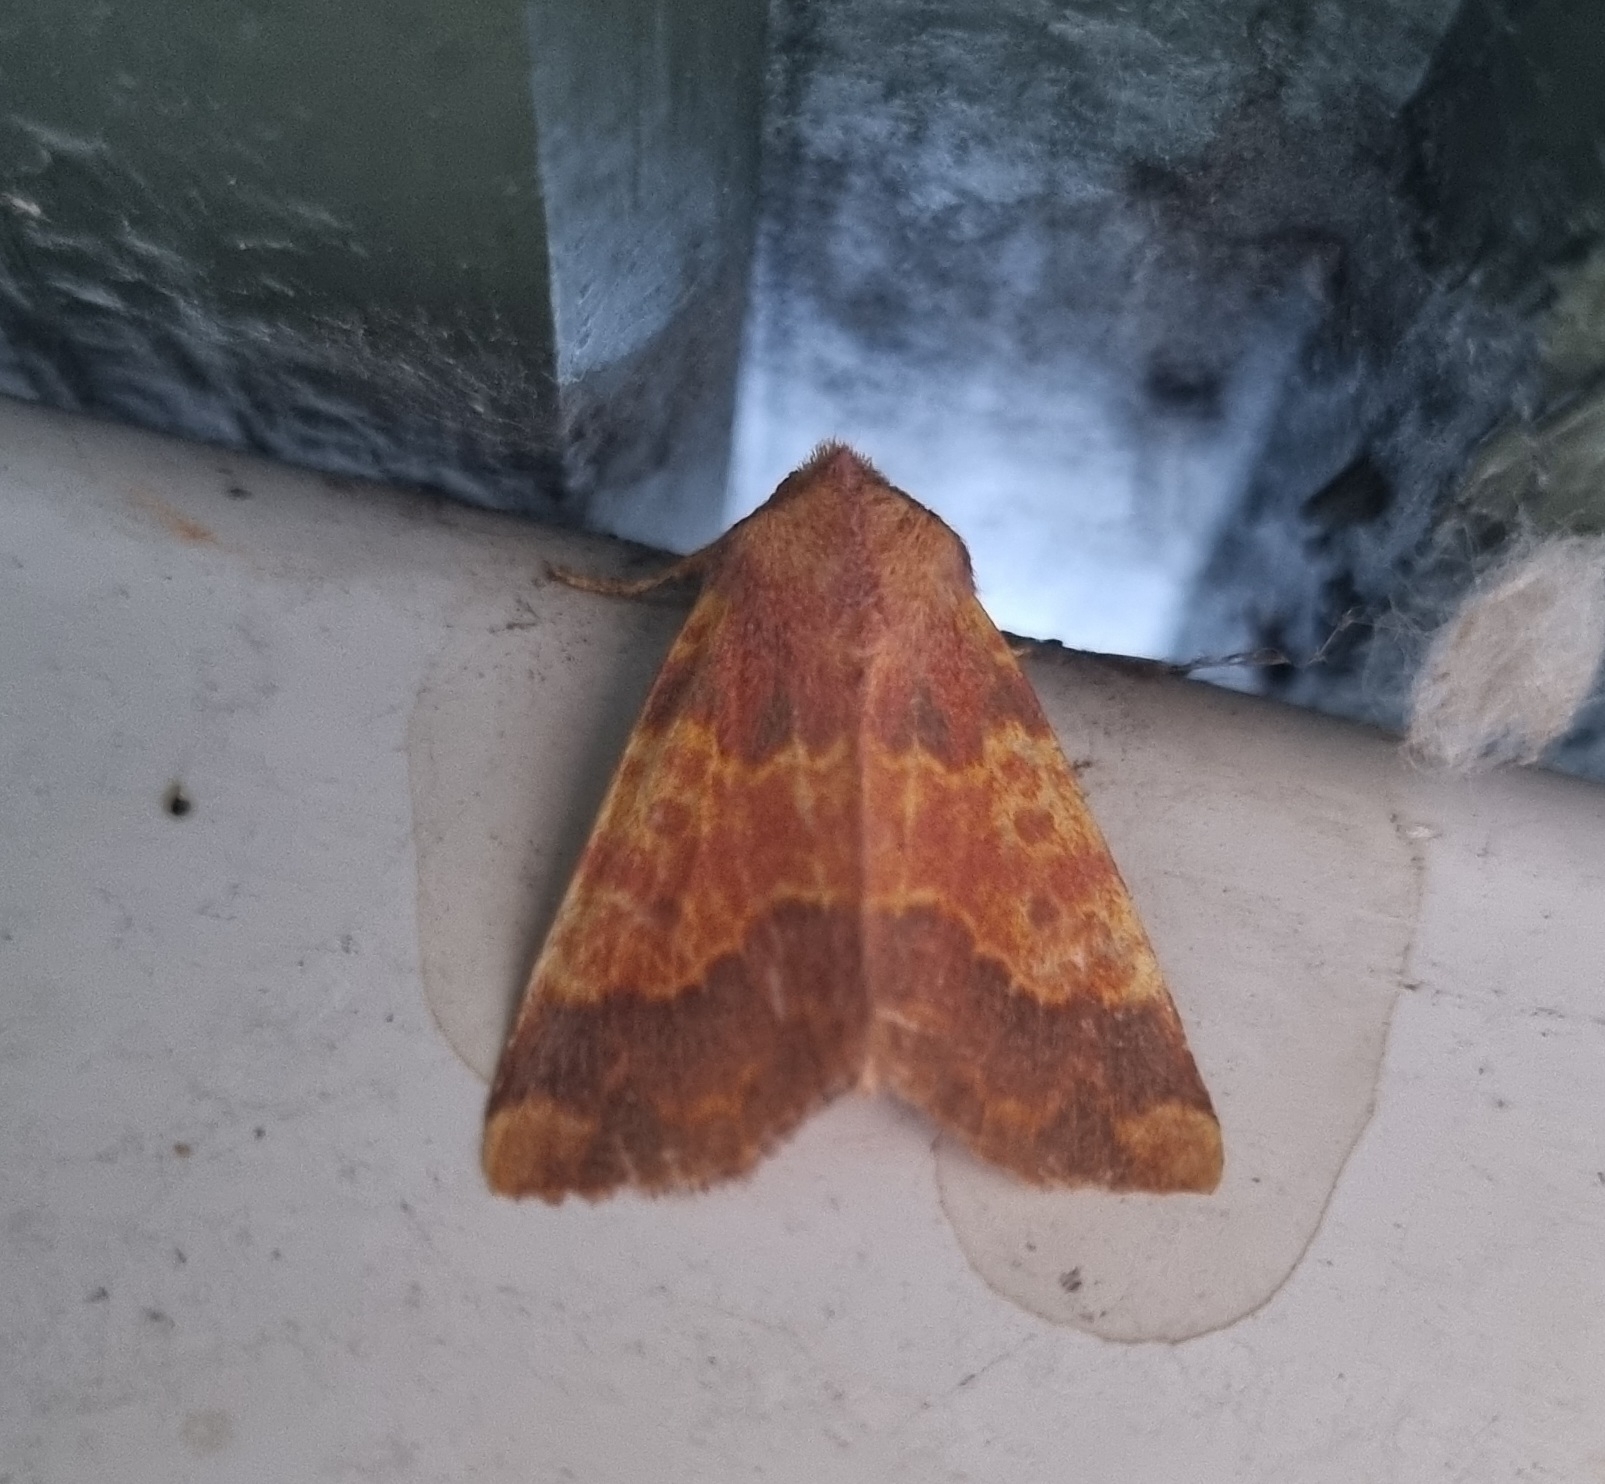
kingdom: Animalia
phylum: Arthropoda
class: Insecta
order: Lepidoptera
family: Noctuidae
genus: Tiliacea
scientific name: Tiliacea aurago
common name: Guldugle
